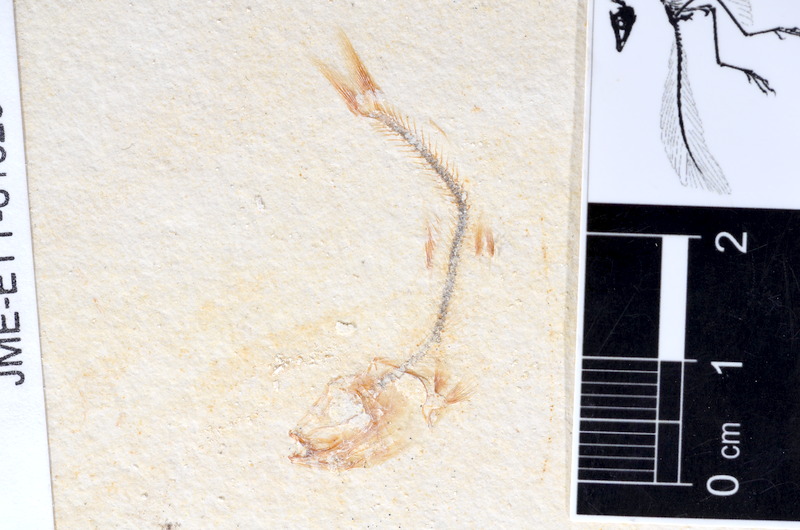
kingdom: Animalia
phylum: Chordata
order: Salmoniformes
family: Orthogonikleithridae
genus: Orthogonikleithrus
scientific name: Orthogonikleithrus hoelli
